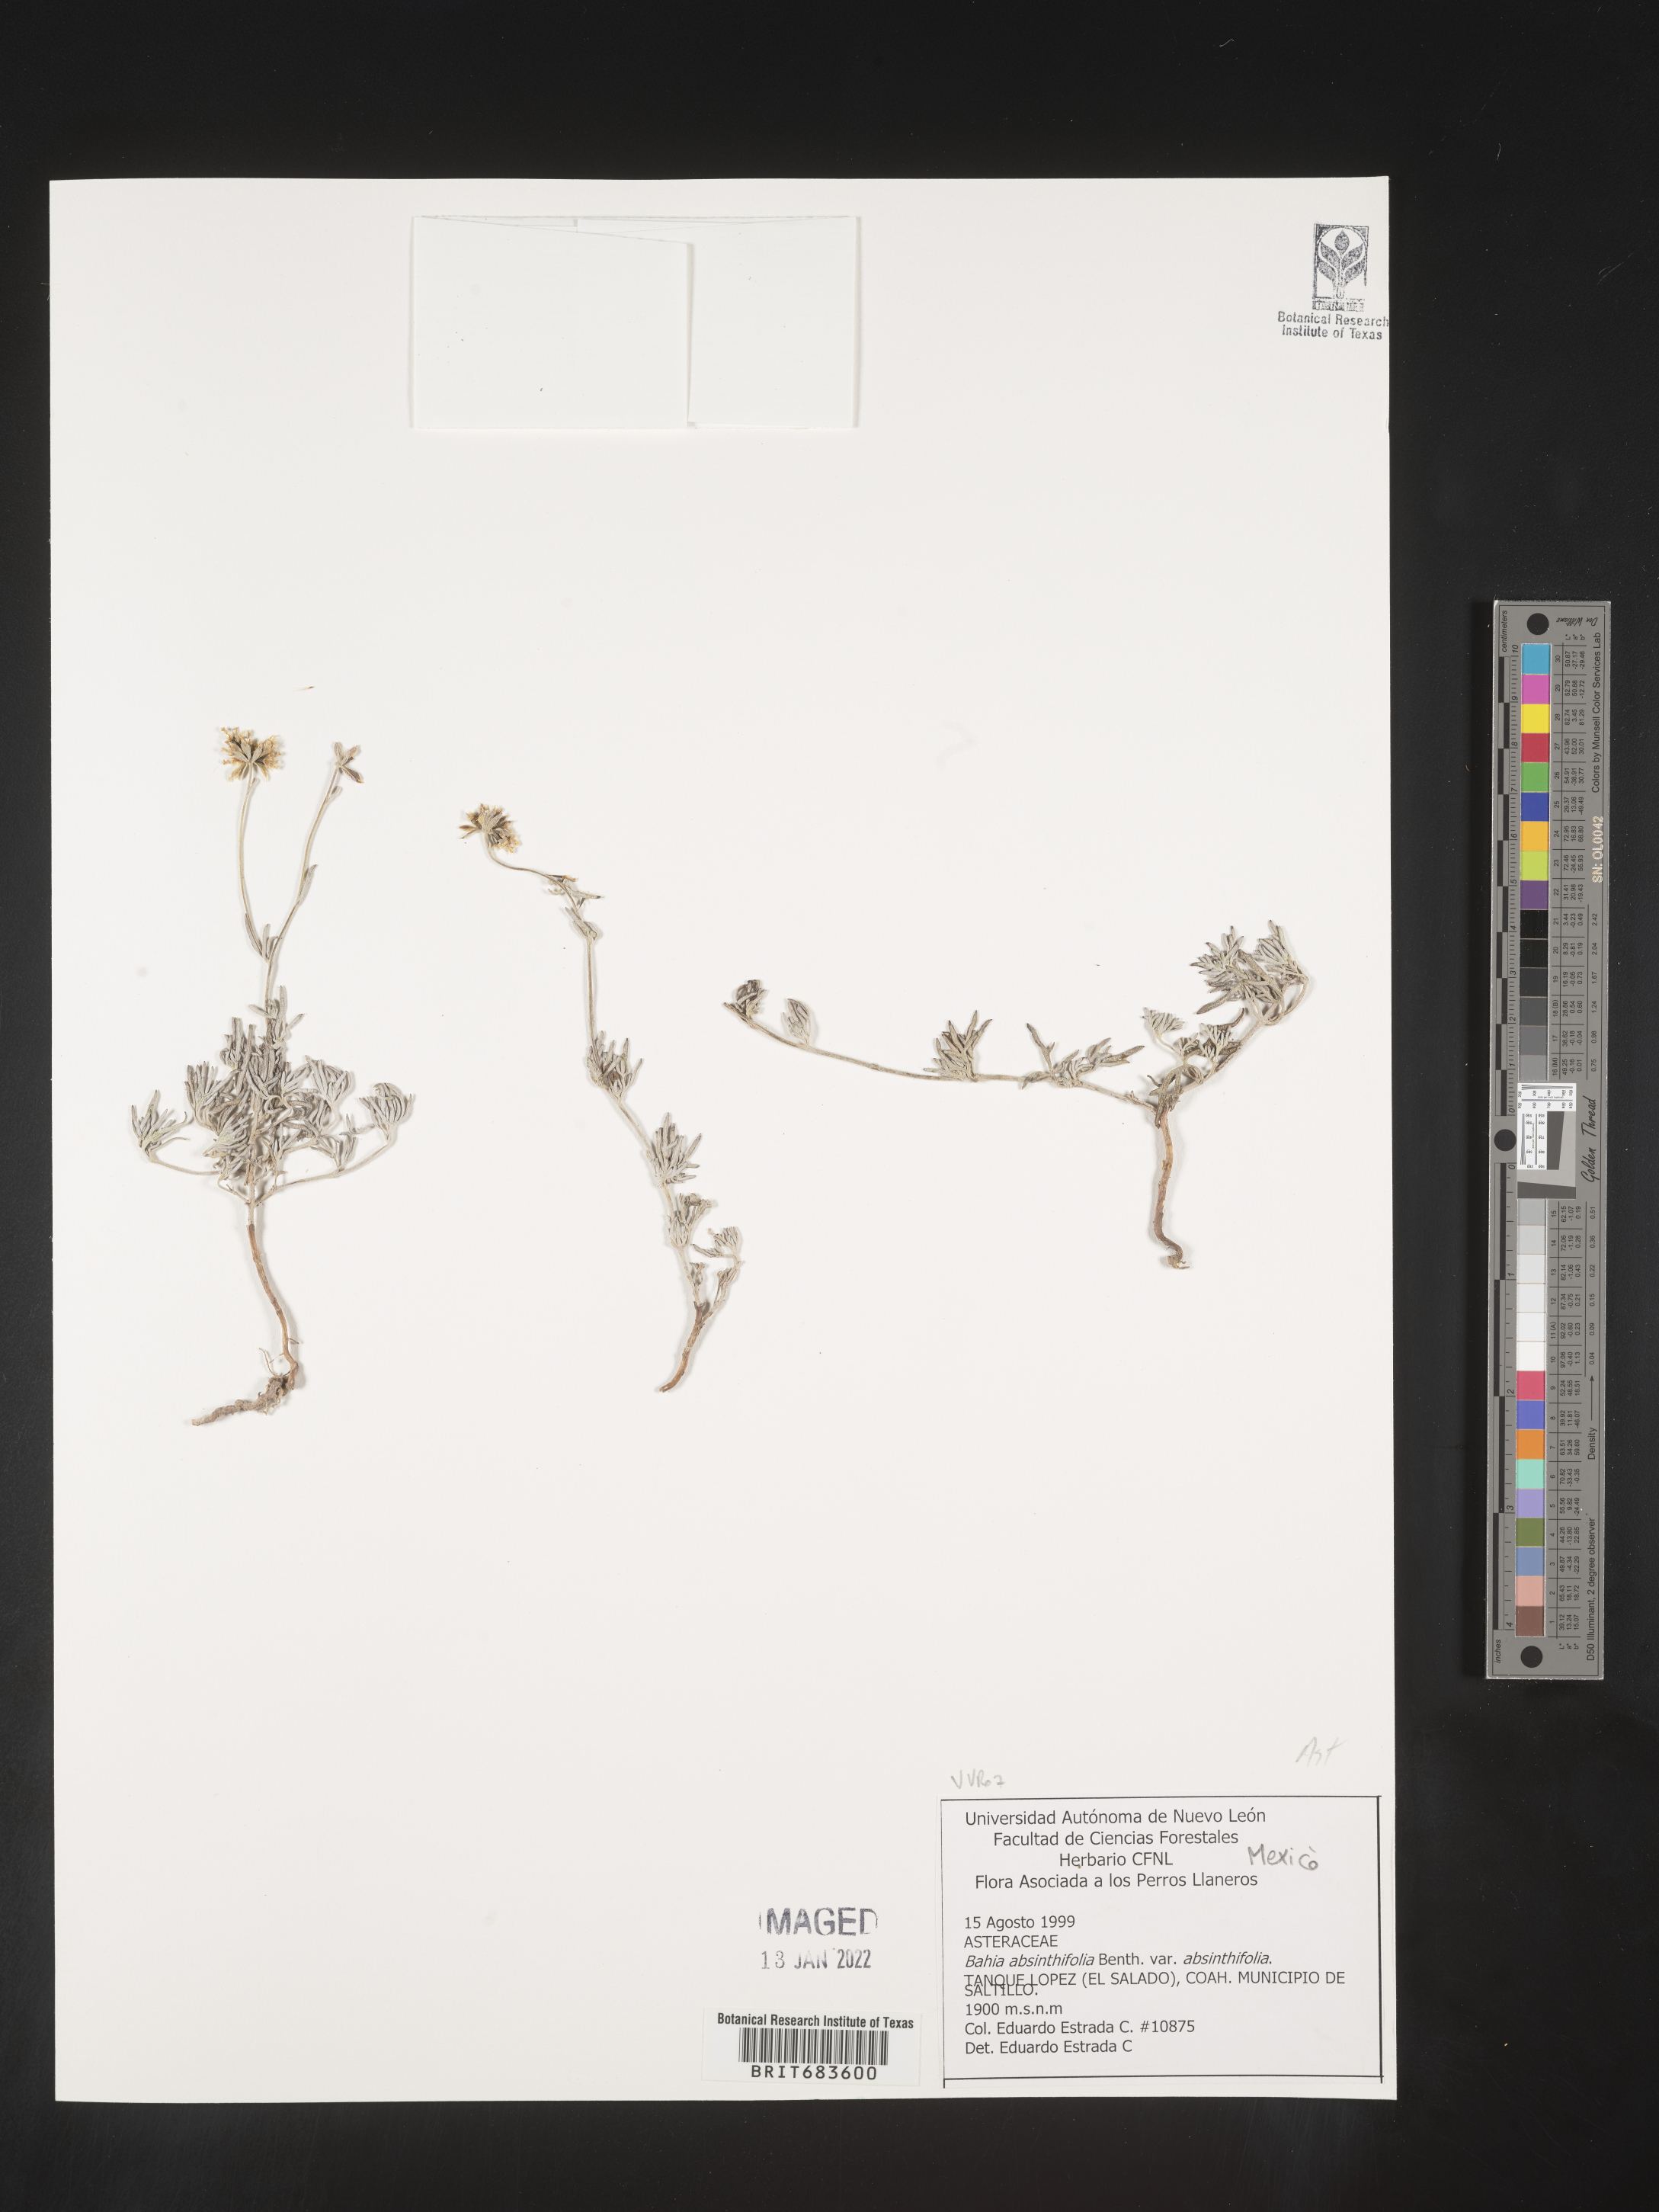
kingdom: Plantae
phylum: Tracheophyta
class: Magnoliopsida
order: Asterales
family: Asteraceae
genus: Picradeniopsis
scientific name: Picradeniopsis absinthifolia
